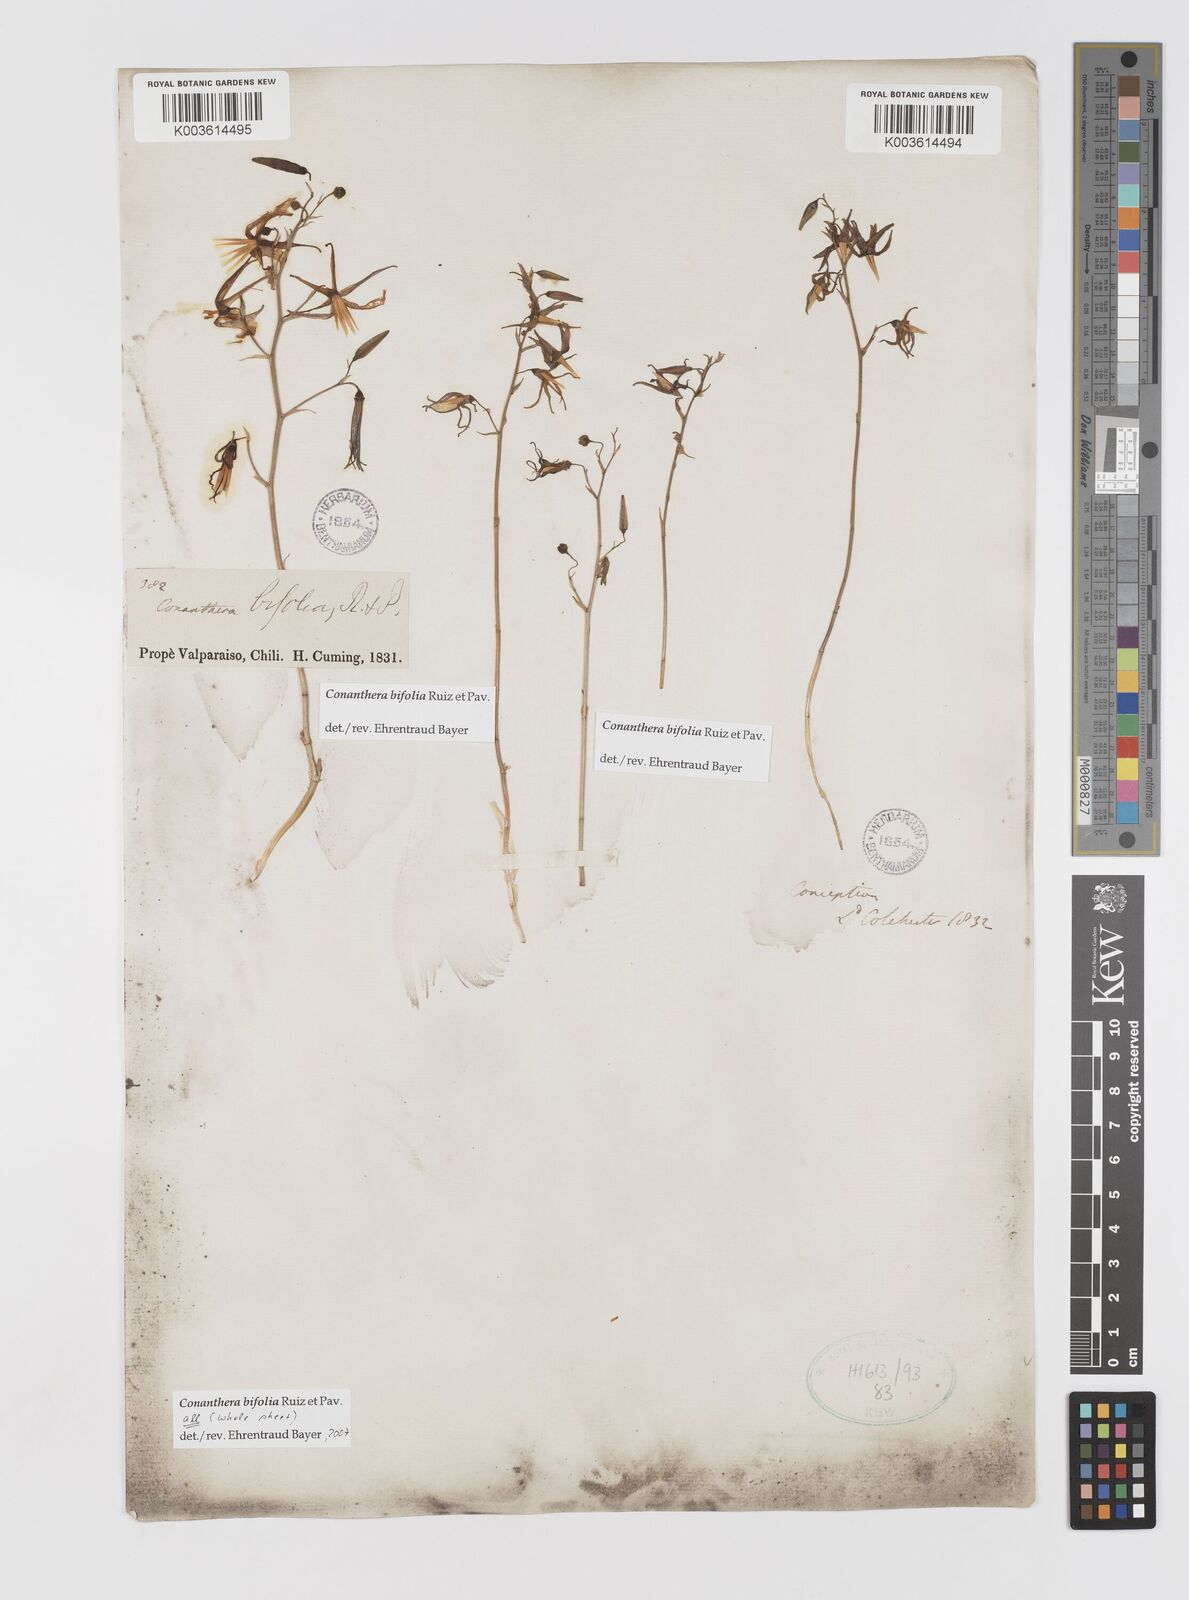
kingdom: Plantae
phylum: Tracheophyta
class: Liliopsida
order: Asparagales
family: Tecophilaeaceae
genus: Conanthera
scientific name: Conanthera bifolia
